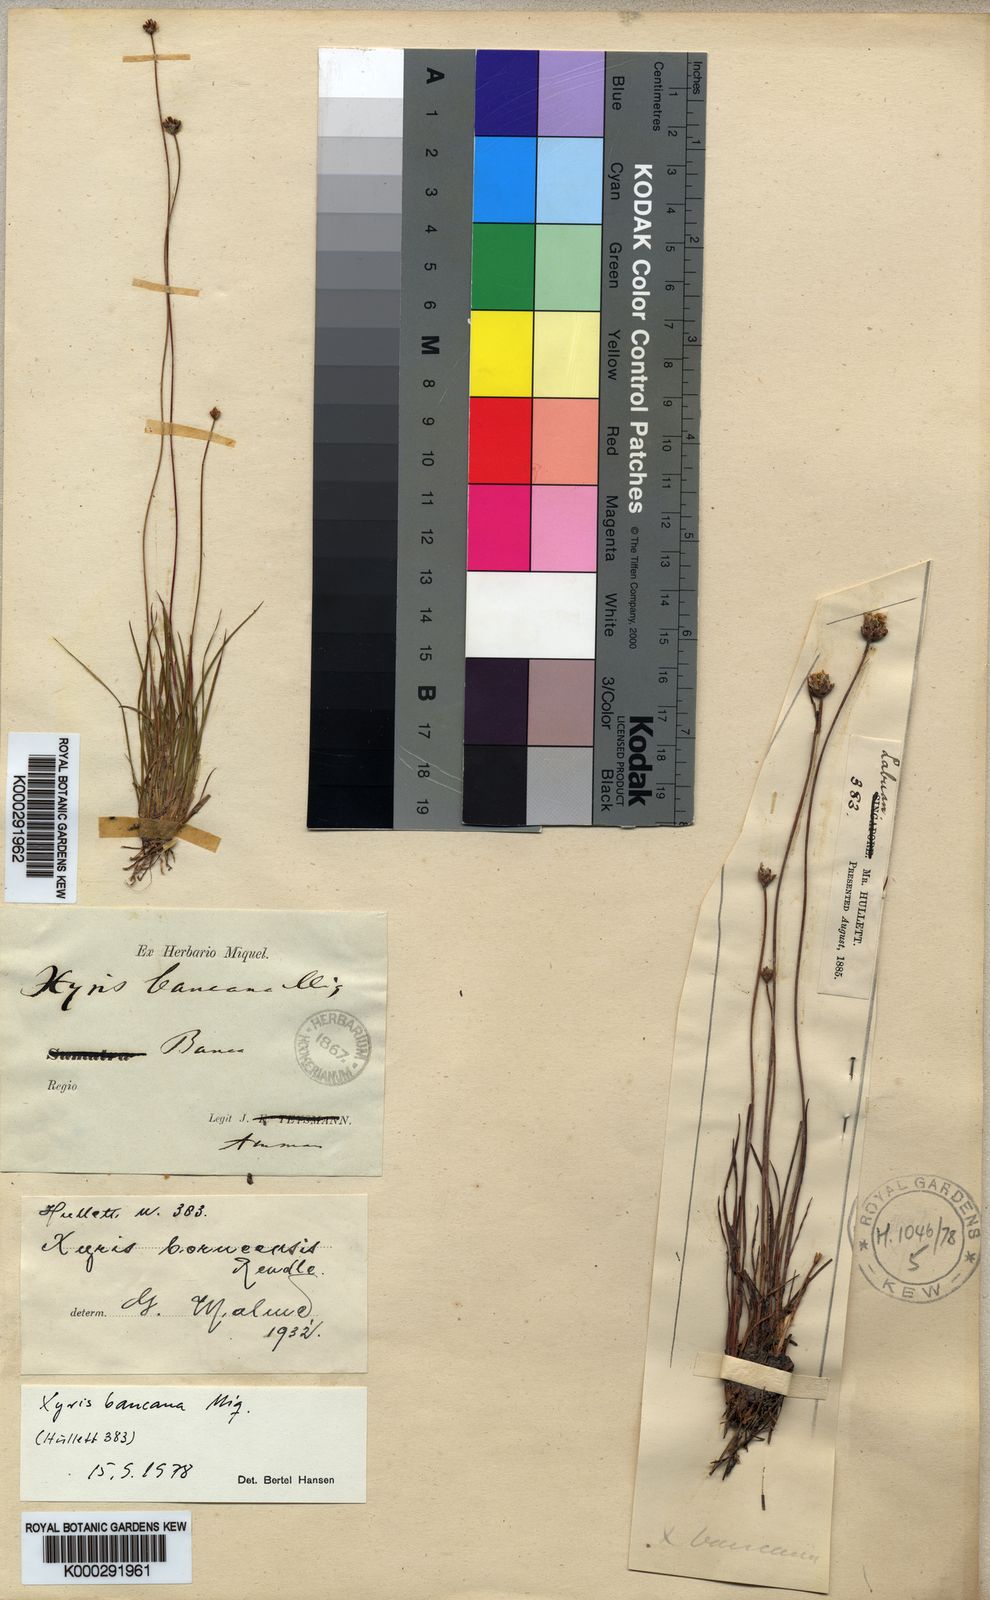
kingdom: Plantae
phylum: Tracheophyta
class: Liliopsida
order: Poales
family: Xyridaceae
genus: Xyris
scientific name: Xyris bancana
